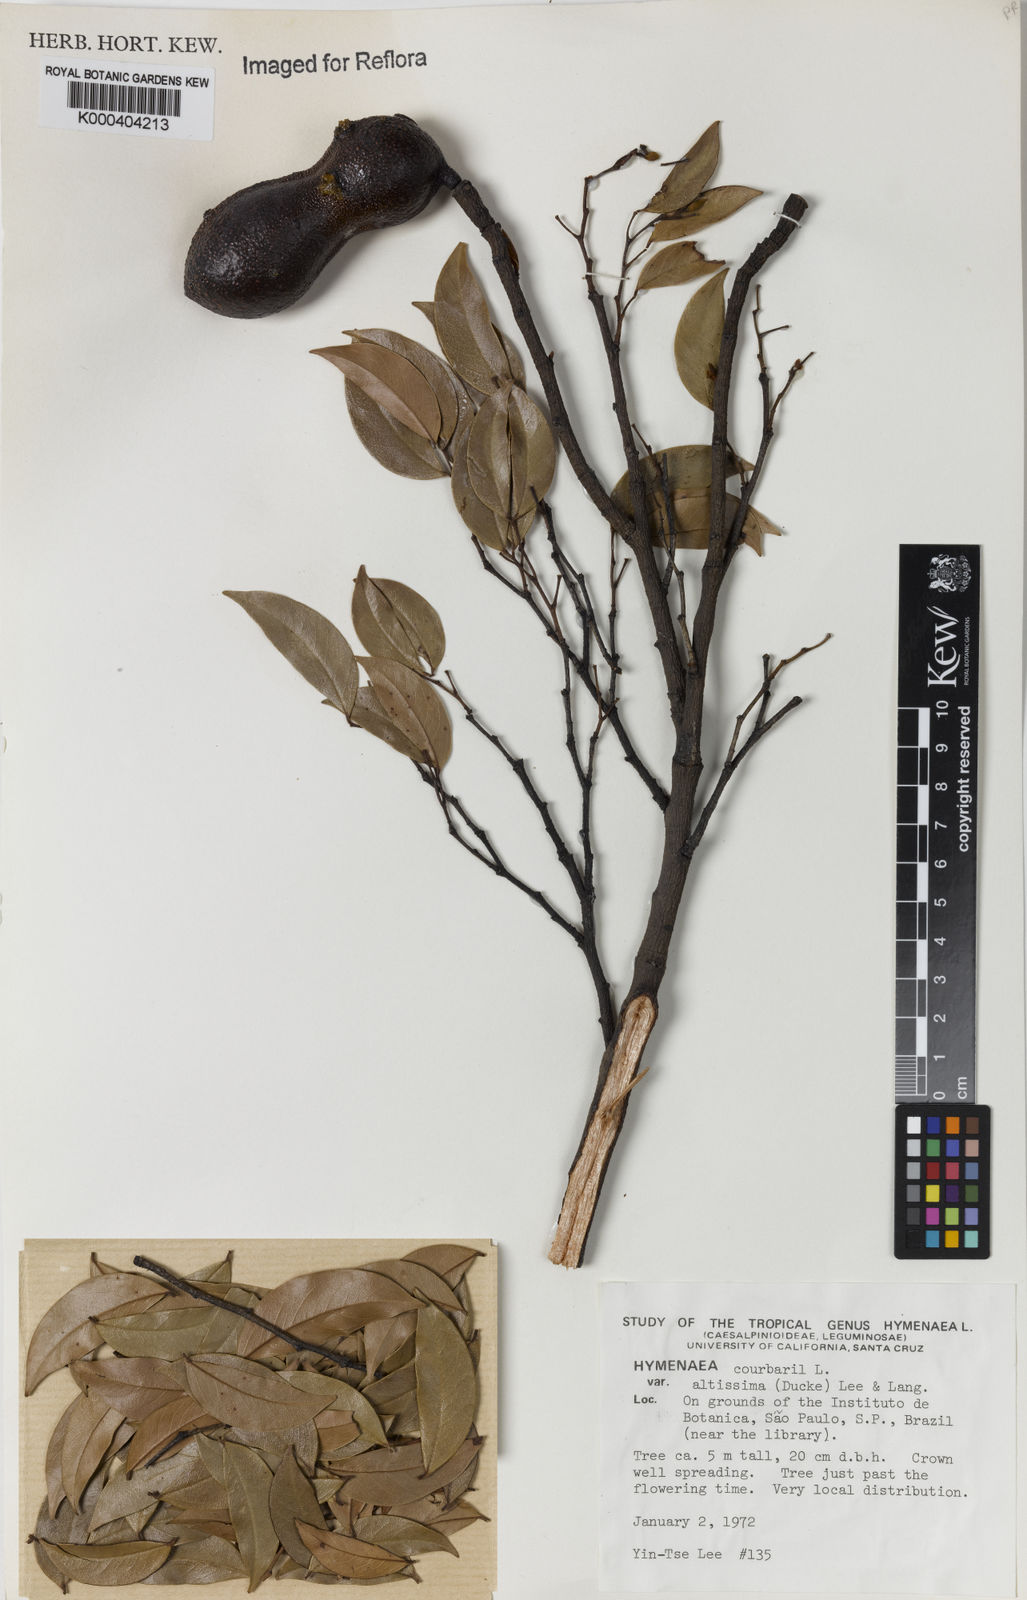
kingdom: Plantae
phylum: Tracheophyta
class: Magnoliopsida
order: Fabales
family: Fabaceae
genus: Hymenaea
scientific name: Hymenaea altissima
